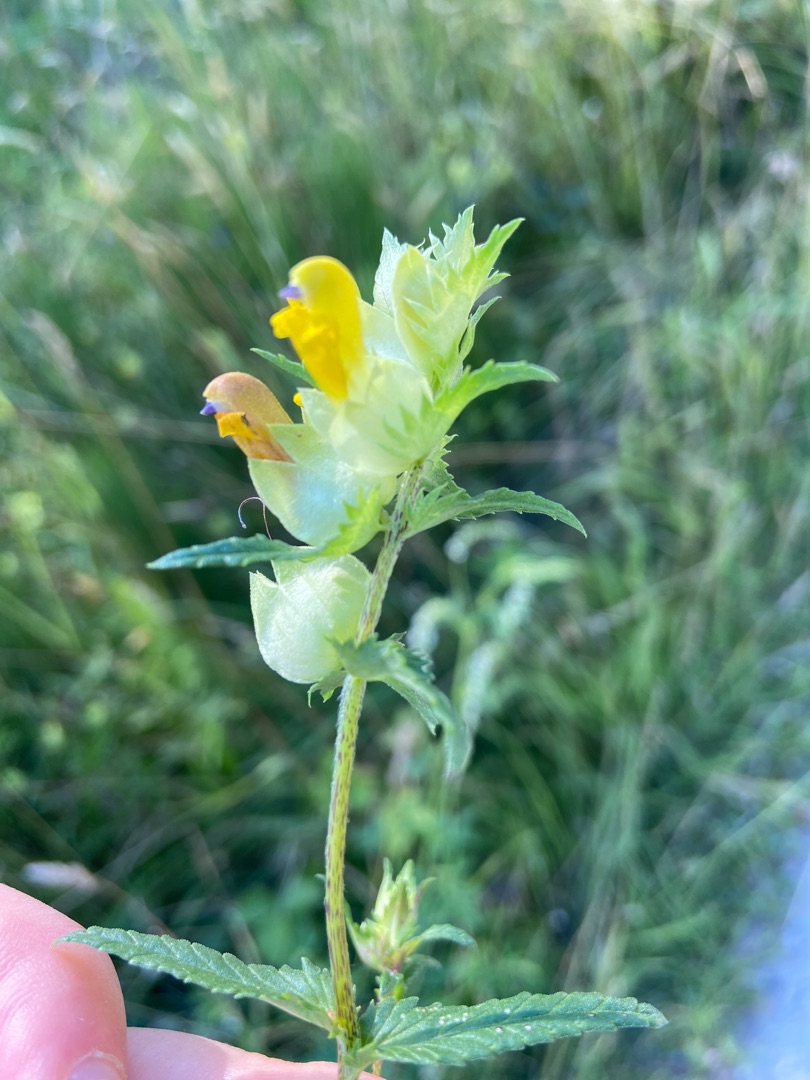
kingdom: Plantae
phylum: Tracheophyta
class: Magnoliopsida
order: Lamiales
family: Orobanchaceae
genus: Rhinanthus
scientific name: Rhinanthus
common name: Stor skjaller
